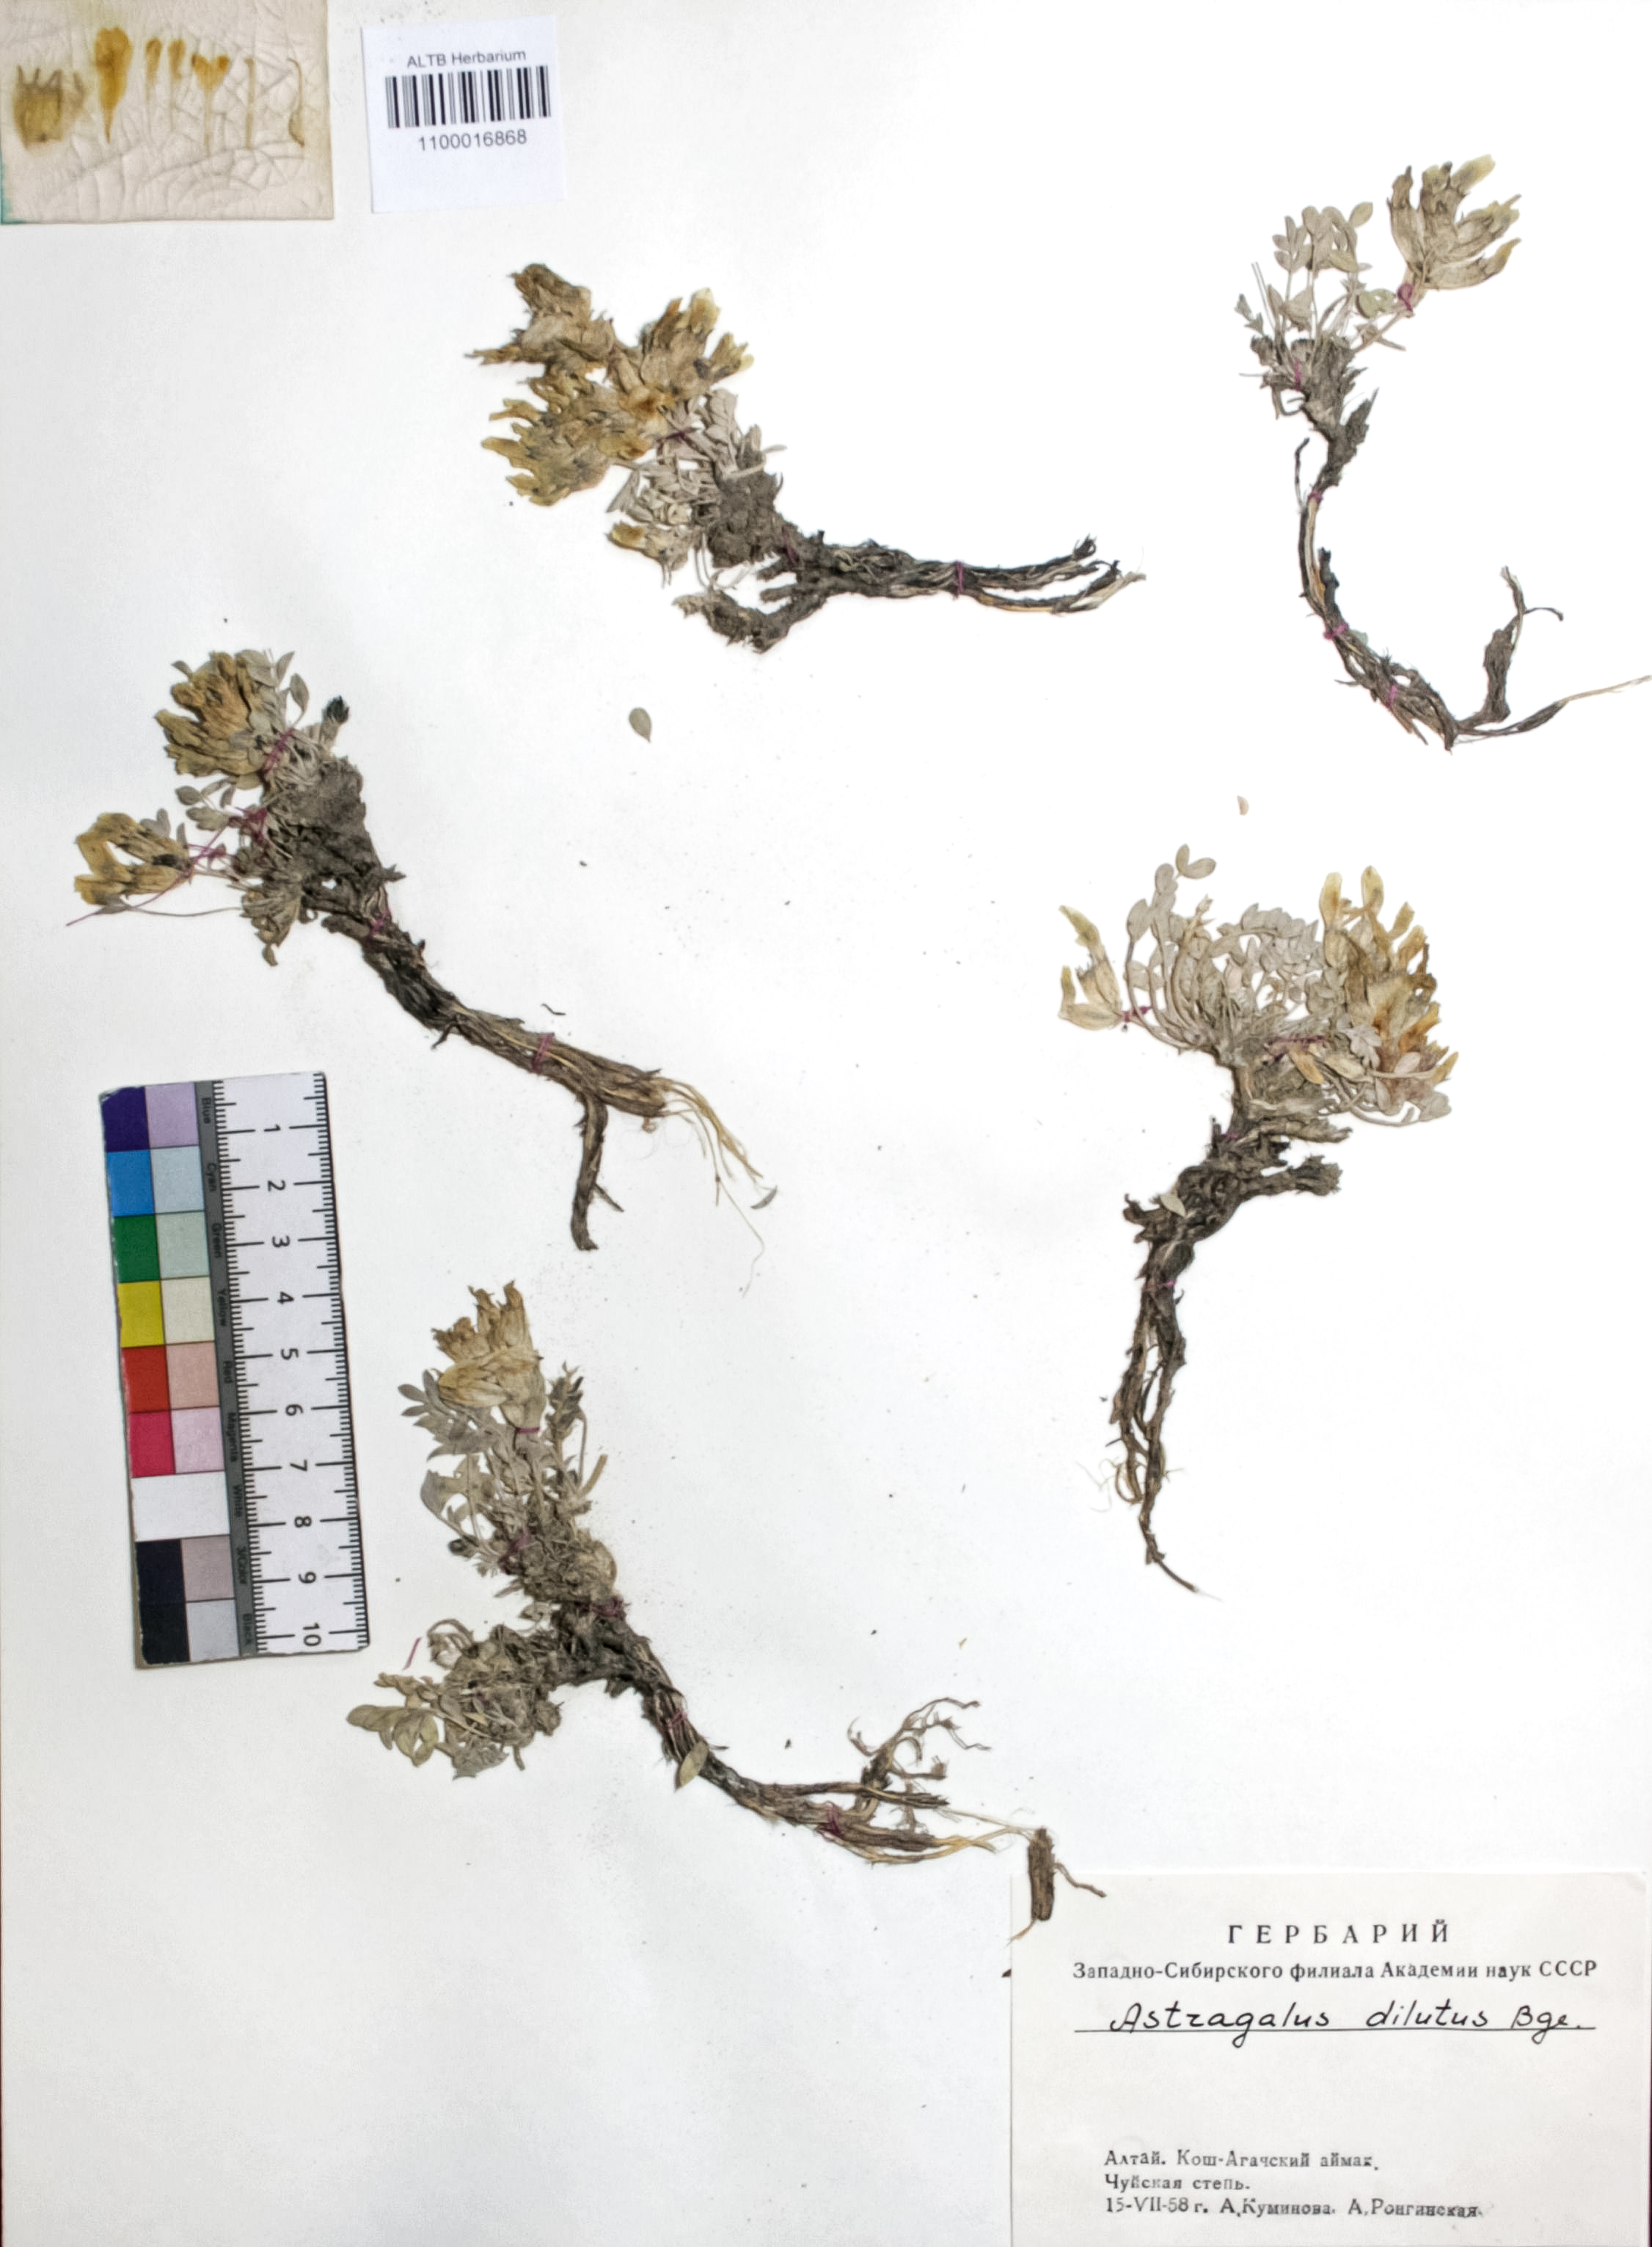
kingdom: Plantae
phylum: Tracheophyta
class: Magnoliopsida
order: Fabales
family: Fabaceae
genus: Astragalus
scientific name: Astragalus dilutus
